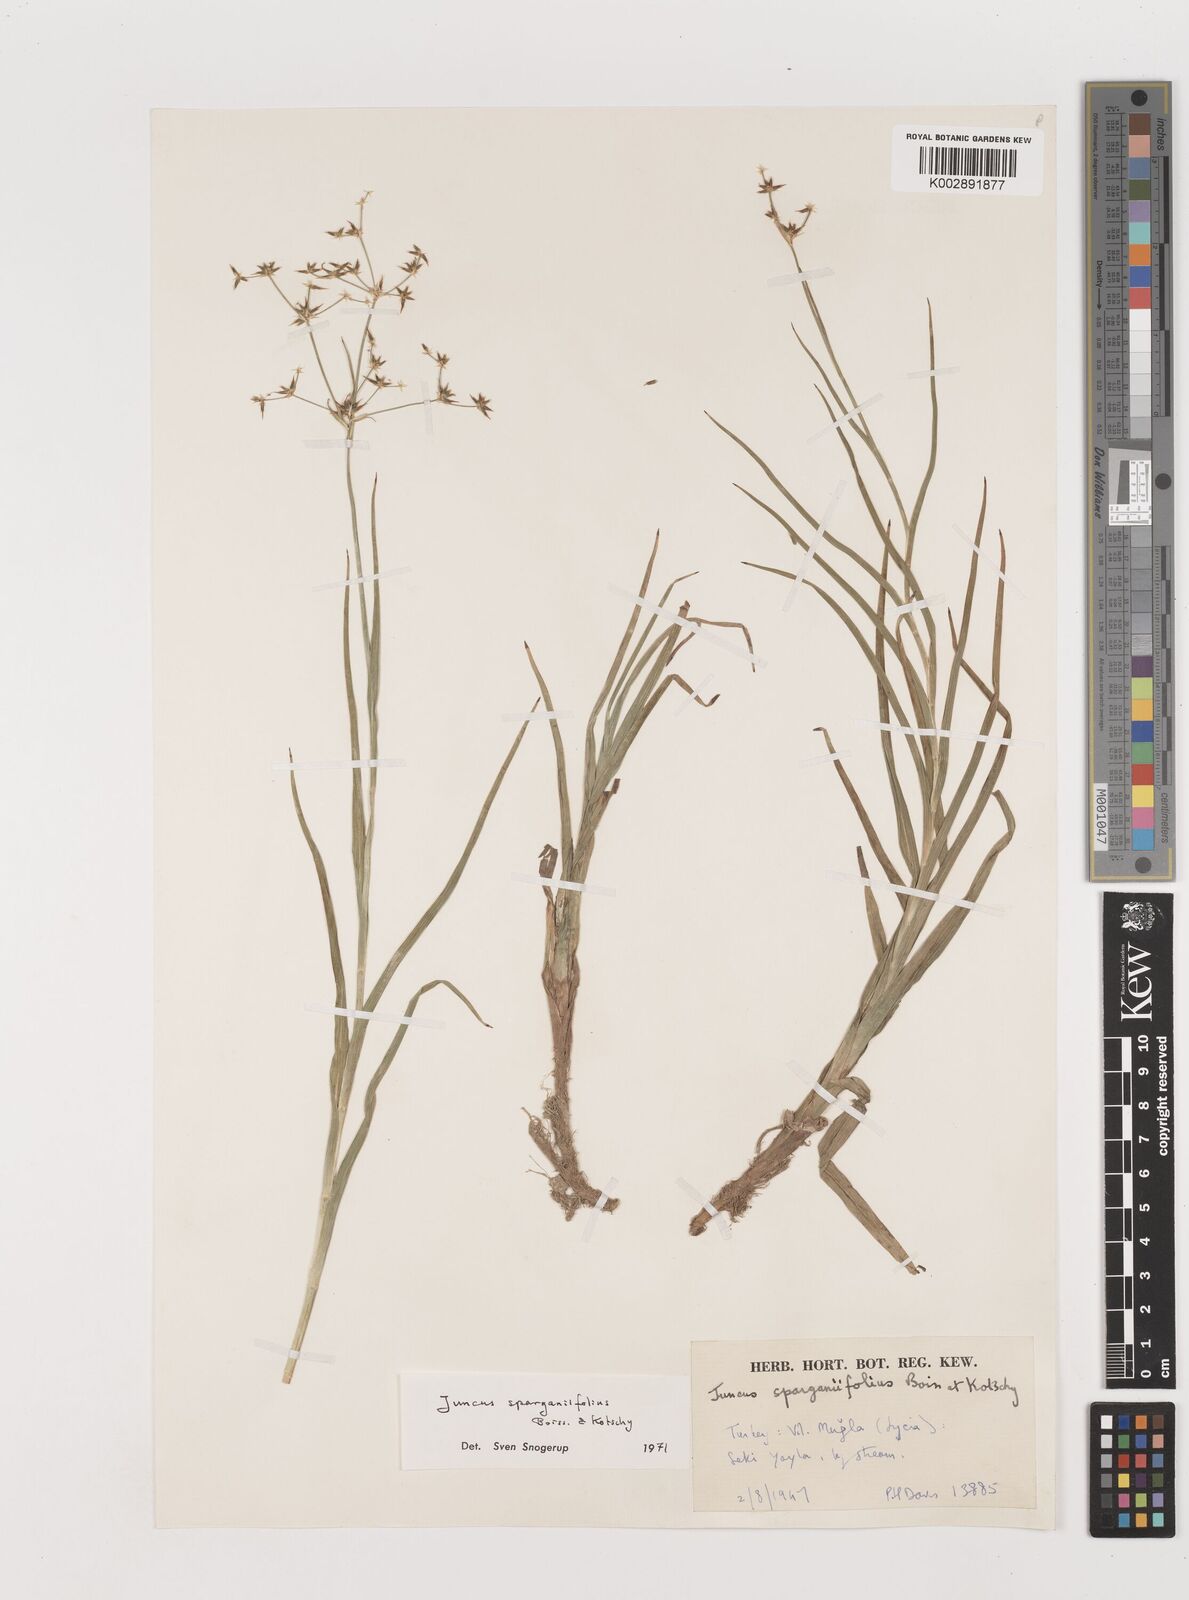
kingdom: Plantae
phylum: Tracheophyta
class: Liliopsida
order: Poales
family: Juncaceae
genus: Juncus
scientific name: Juncus sparganiifolius
